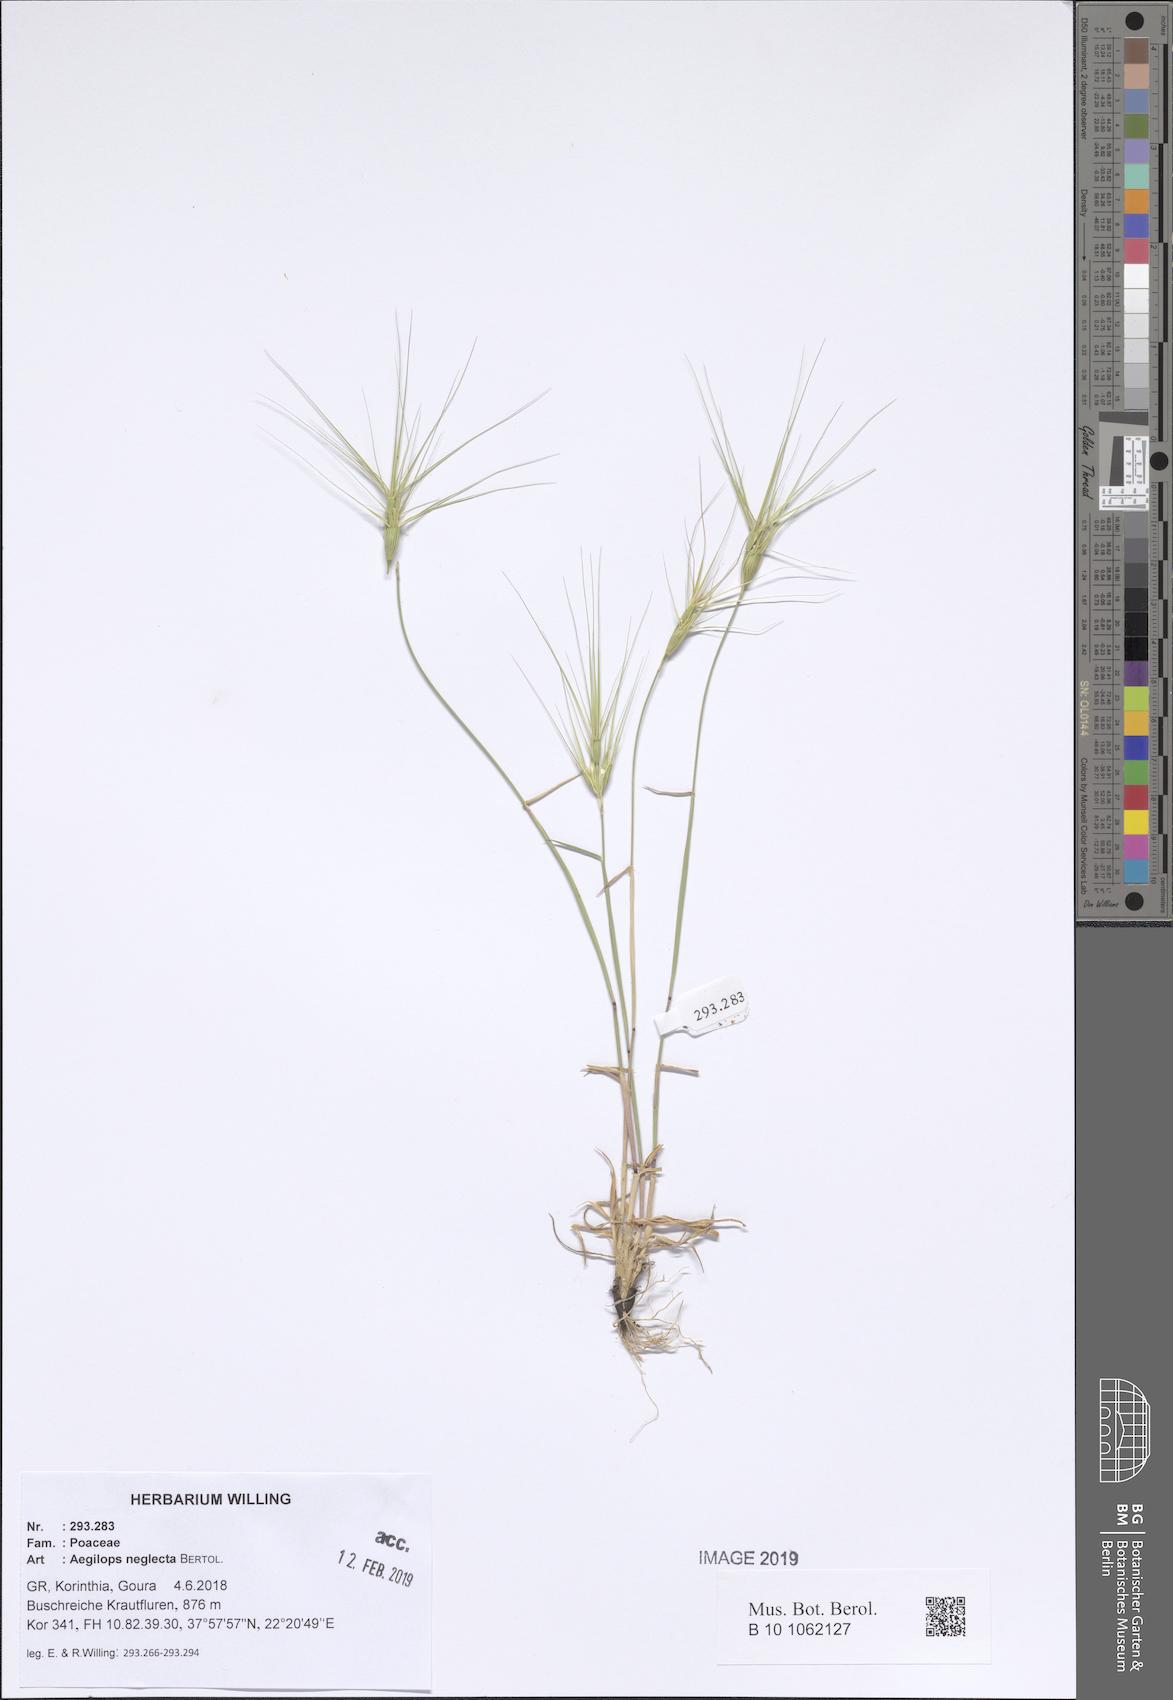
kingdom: Plantae
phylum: Tracheophyta
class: Liliopsida
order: Poales
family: Poaceae
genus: Aegilops
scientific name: Aegilops neglecta
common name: Three-awn goat grass
